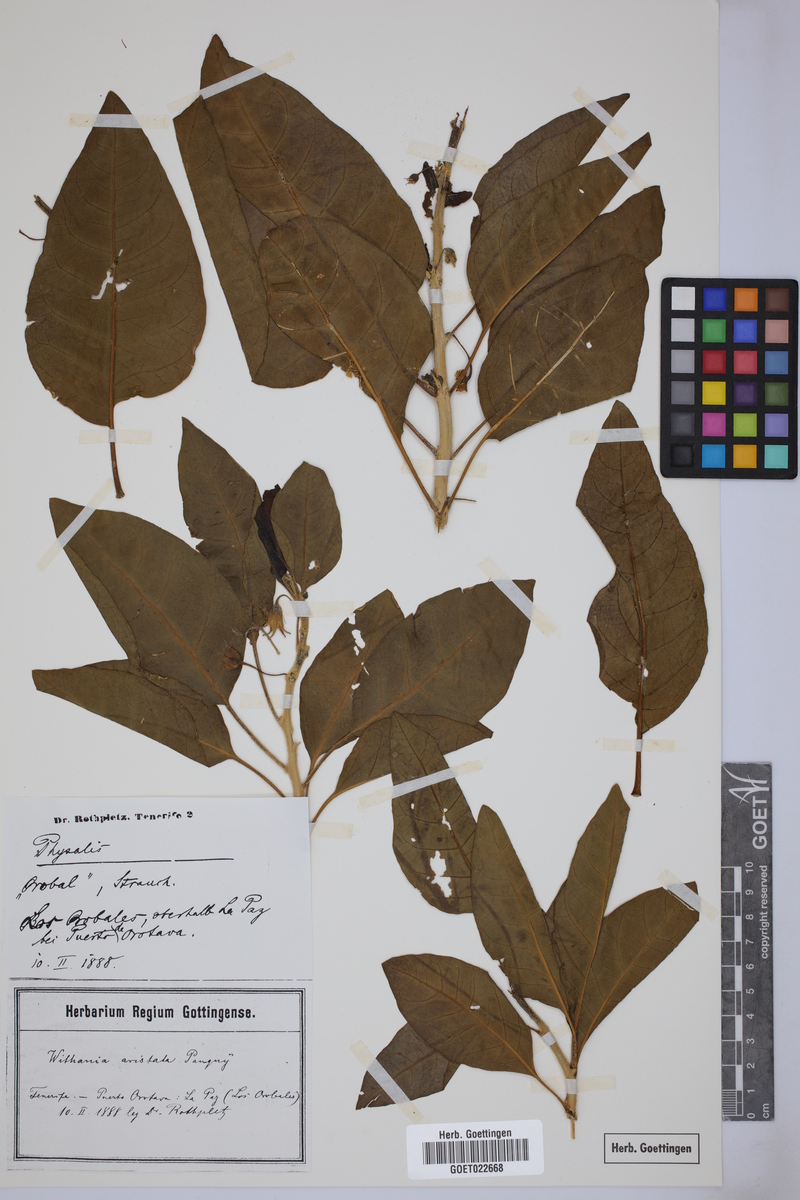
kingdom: Plantae
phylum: Tracheophyta
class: Magnoliopsida
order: Solanales
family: Solanaceae
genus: Withania
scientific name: Withania aristata
